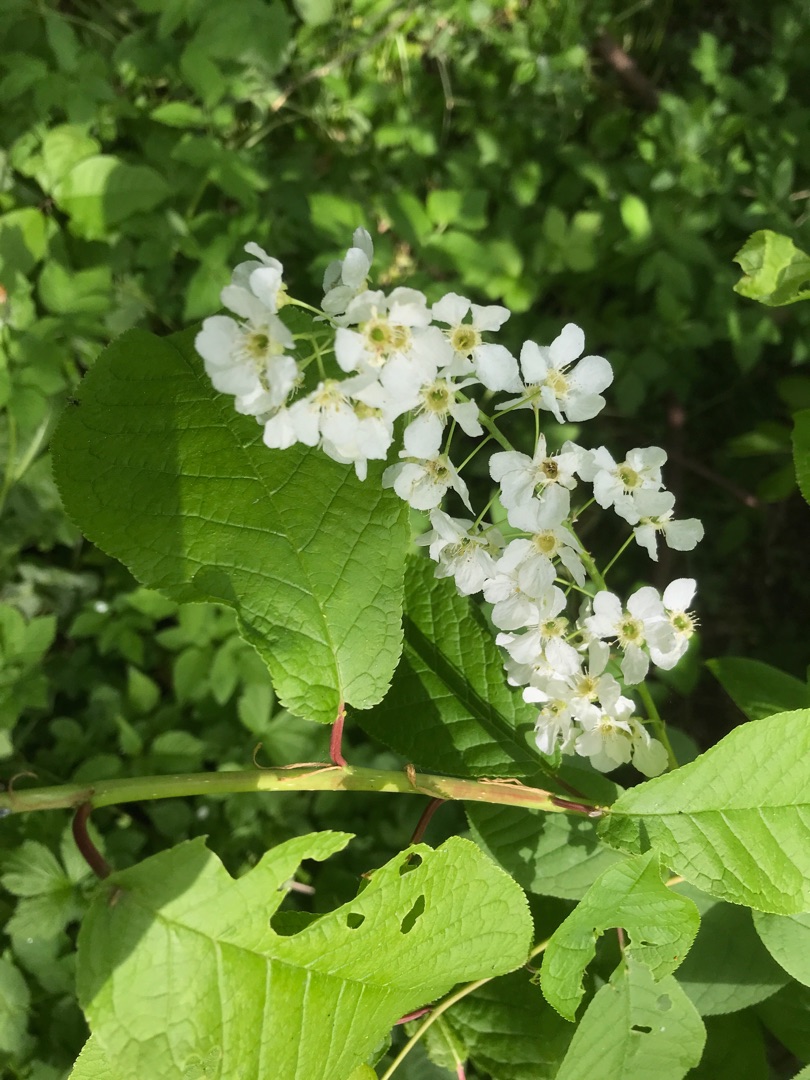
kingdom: Plantae
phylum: Tracheophyta
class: Magnoliopsida
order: Rosales
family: Rosaceae
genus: Prunus
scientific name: Prunus padus
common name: Almindelig hæg
